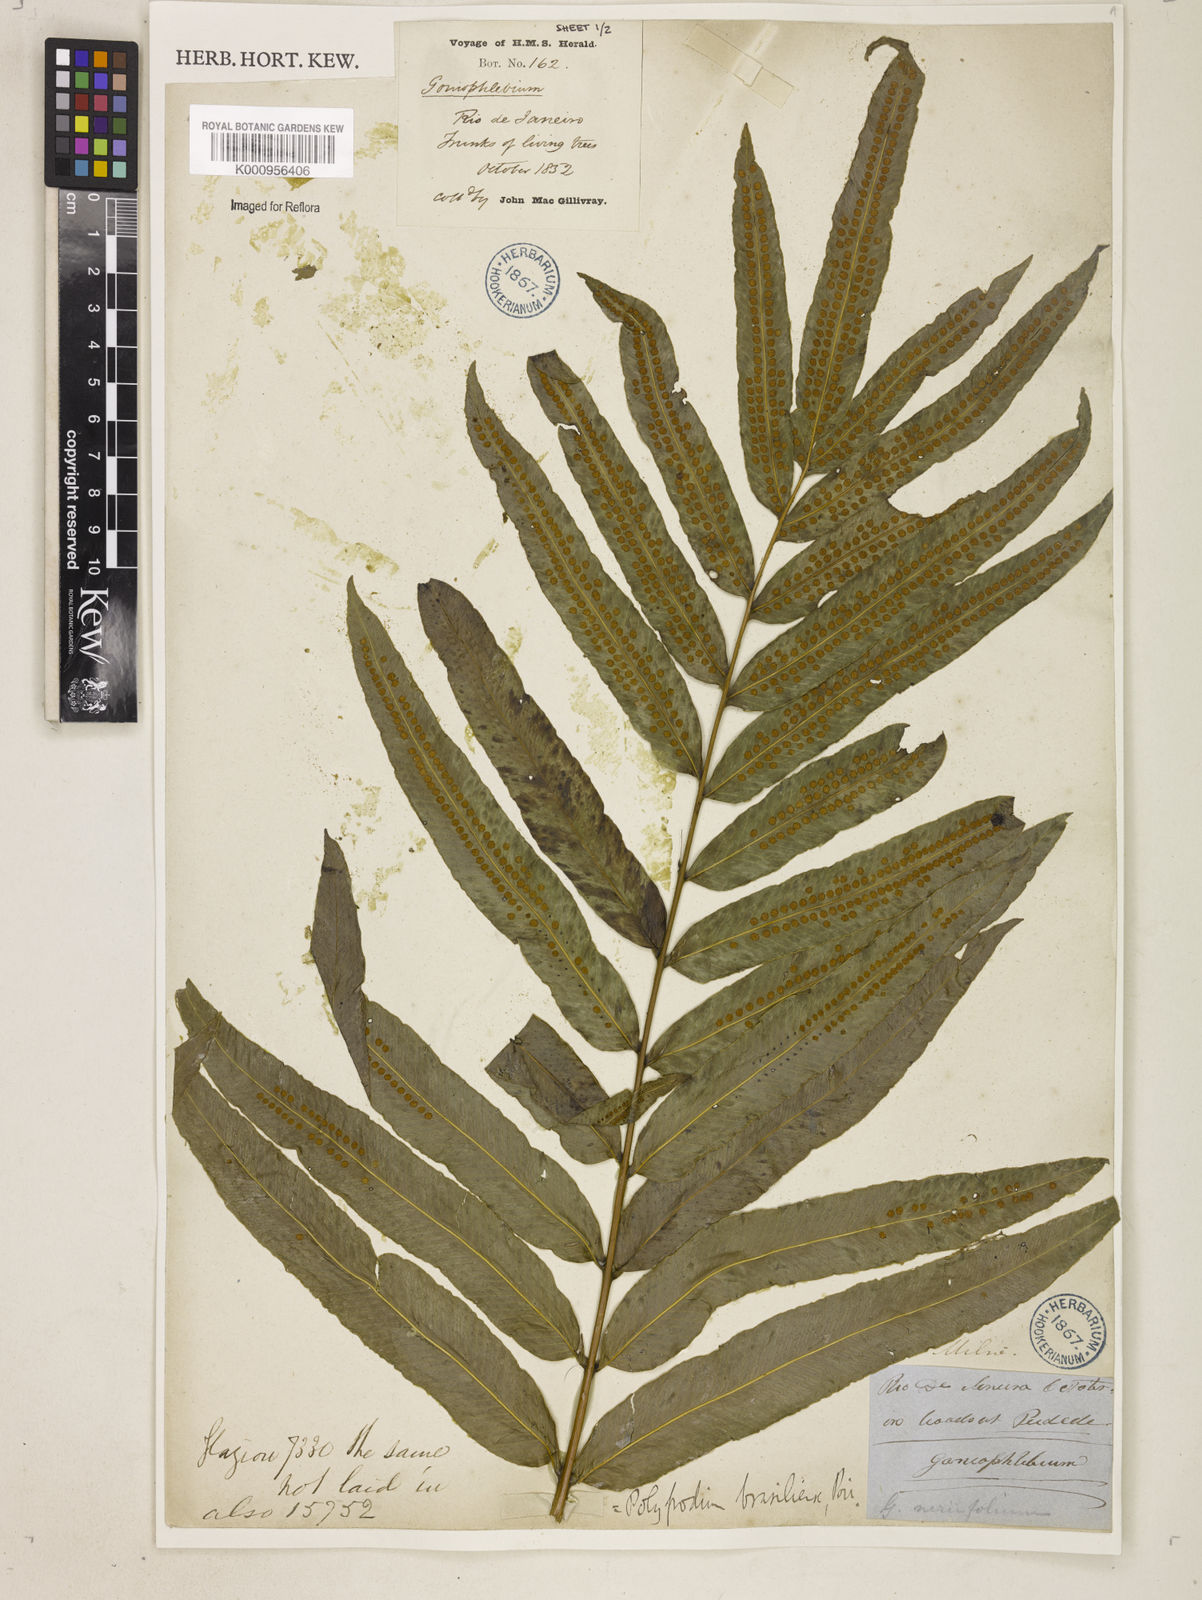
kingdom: Plantae
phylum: Tracheophyta
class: Polypodiopsida
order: Polypodiales
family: Polypodiaceae
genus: Serpocaulon
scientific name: Serpocaulon triseriale
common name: Angle-vein fern
